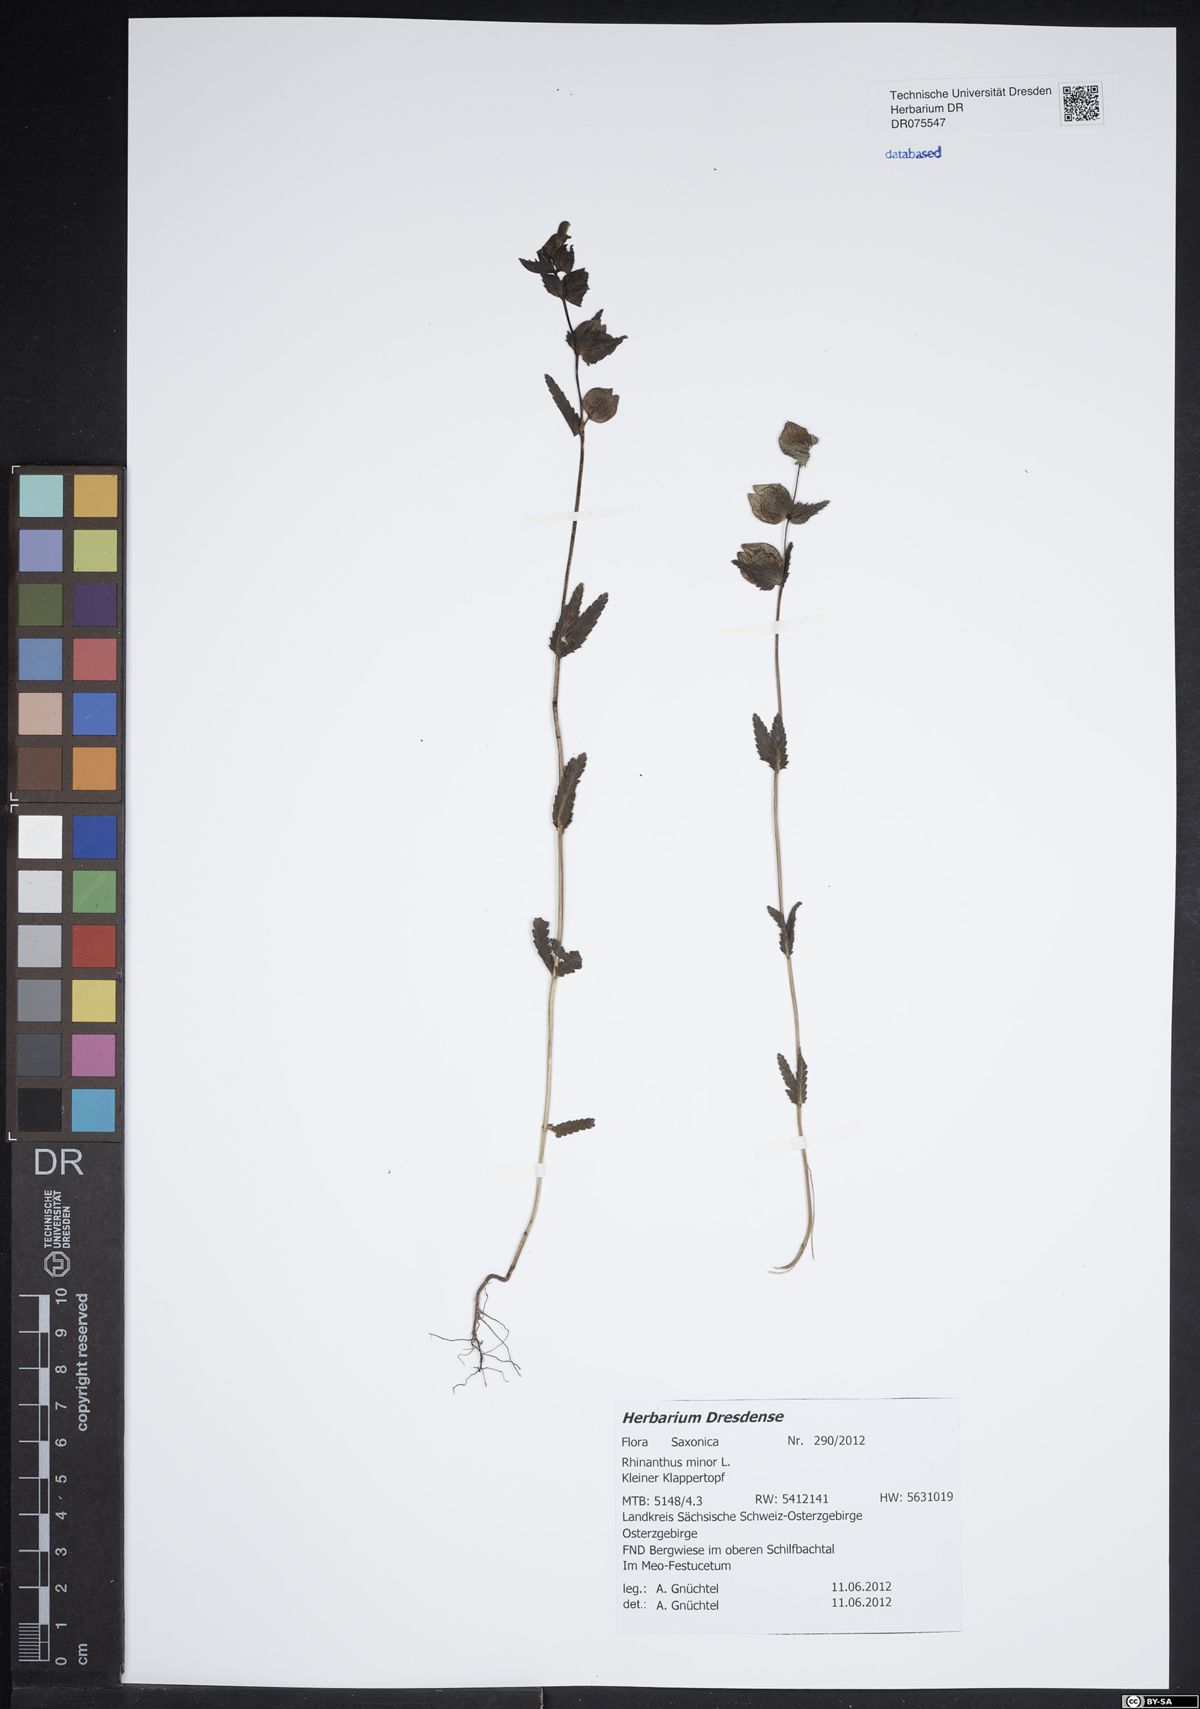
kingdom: Plantae
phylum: Tracheophyta
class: Magnoliopsida
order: Lamiales
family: Orobanchaceae
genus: Rhinanthus
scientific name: Rhinanthus minor
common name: Yellow-rattle
